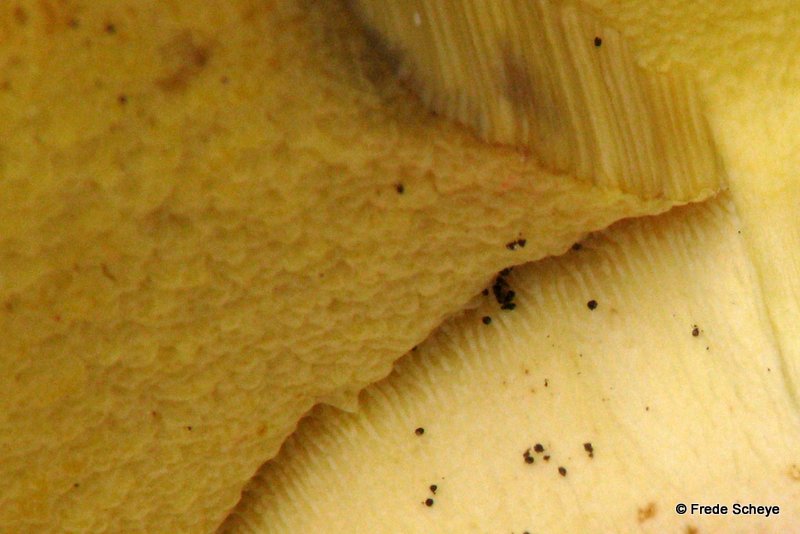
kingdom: Fungi
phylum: Basidiomycota
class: Agaricomycetes
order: Boletales
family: Boletaceae
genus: Butyriboletus
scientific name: Butyriboletus appendiculatus
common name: tenstokket rørhat
